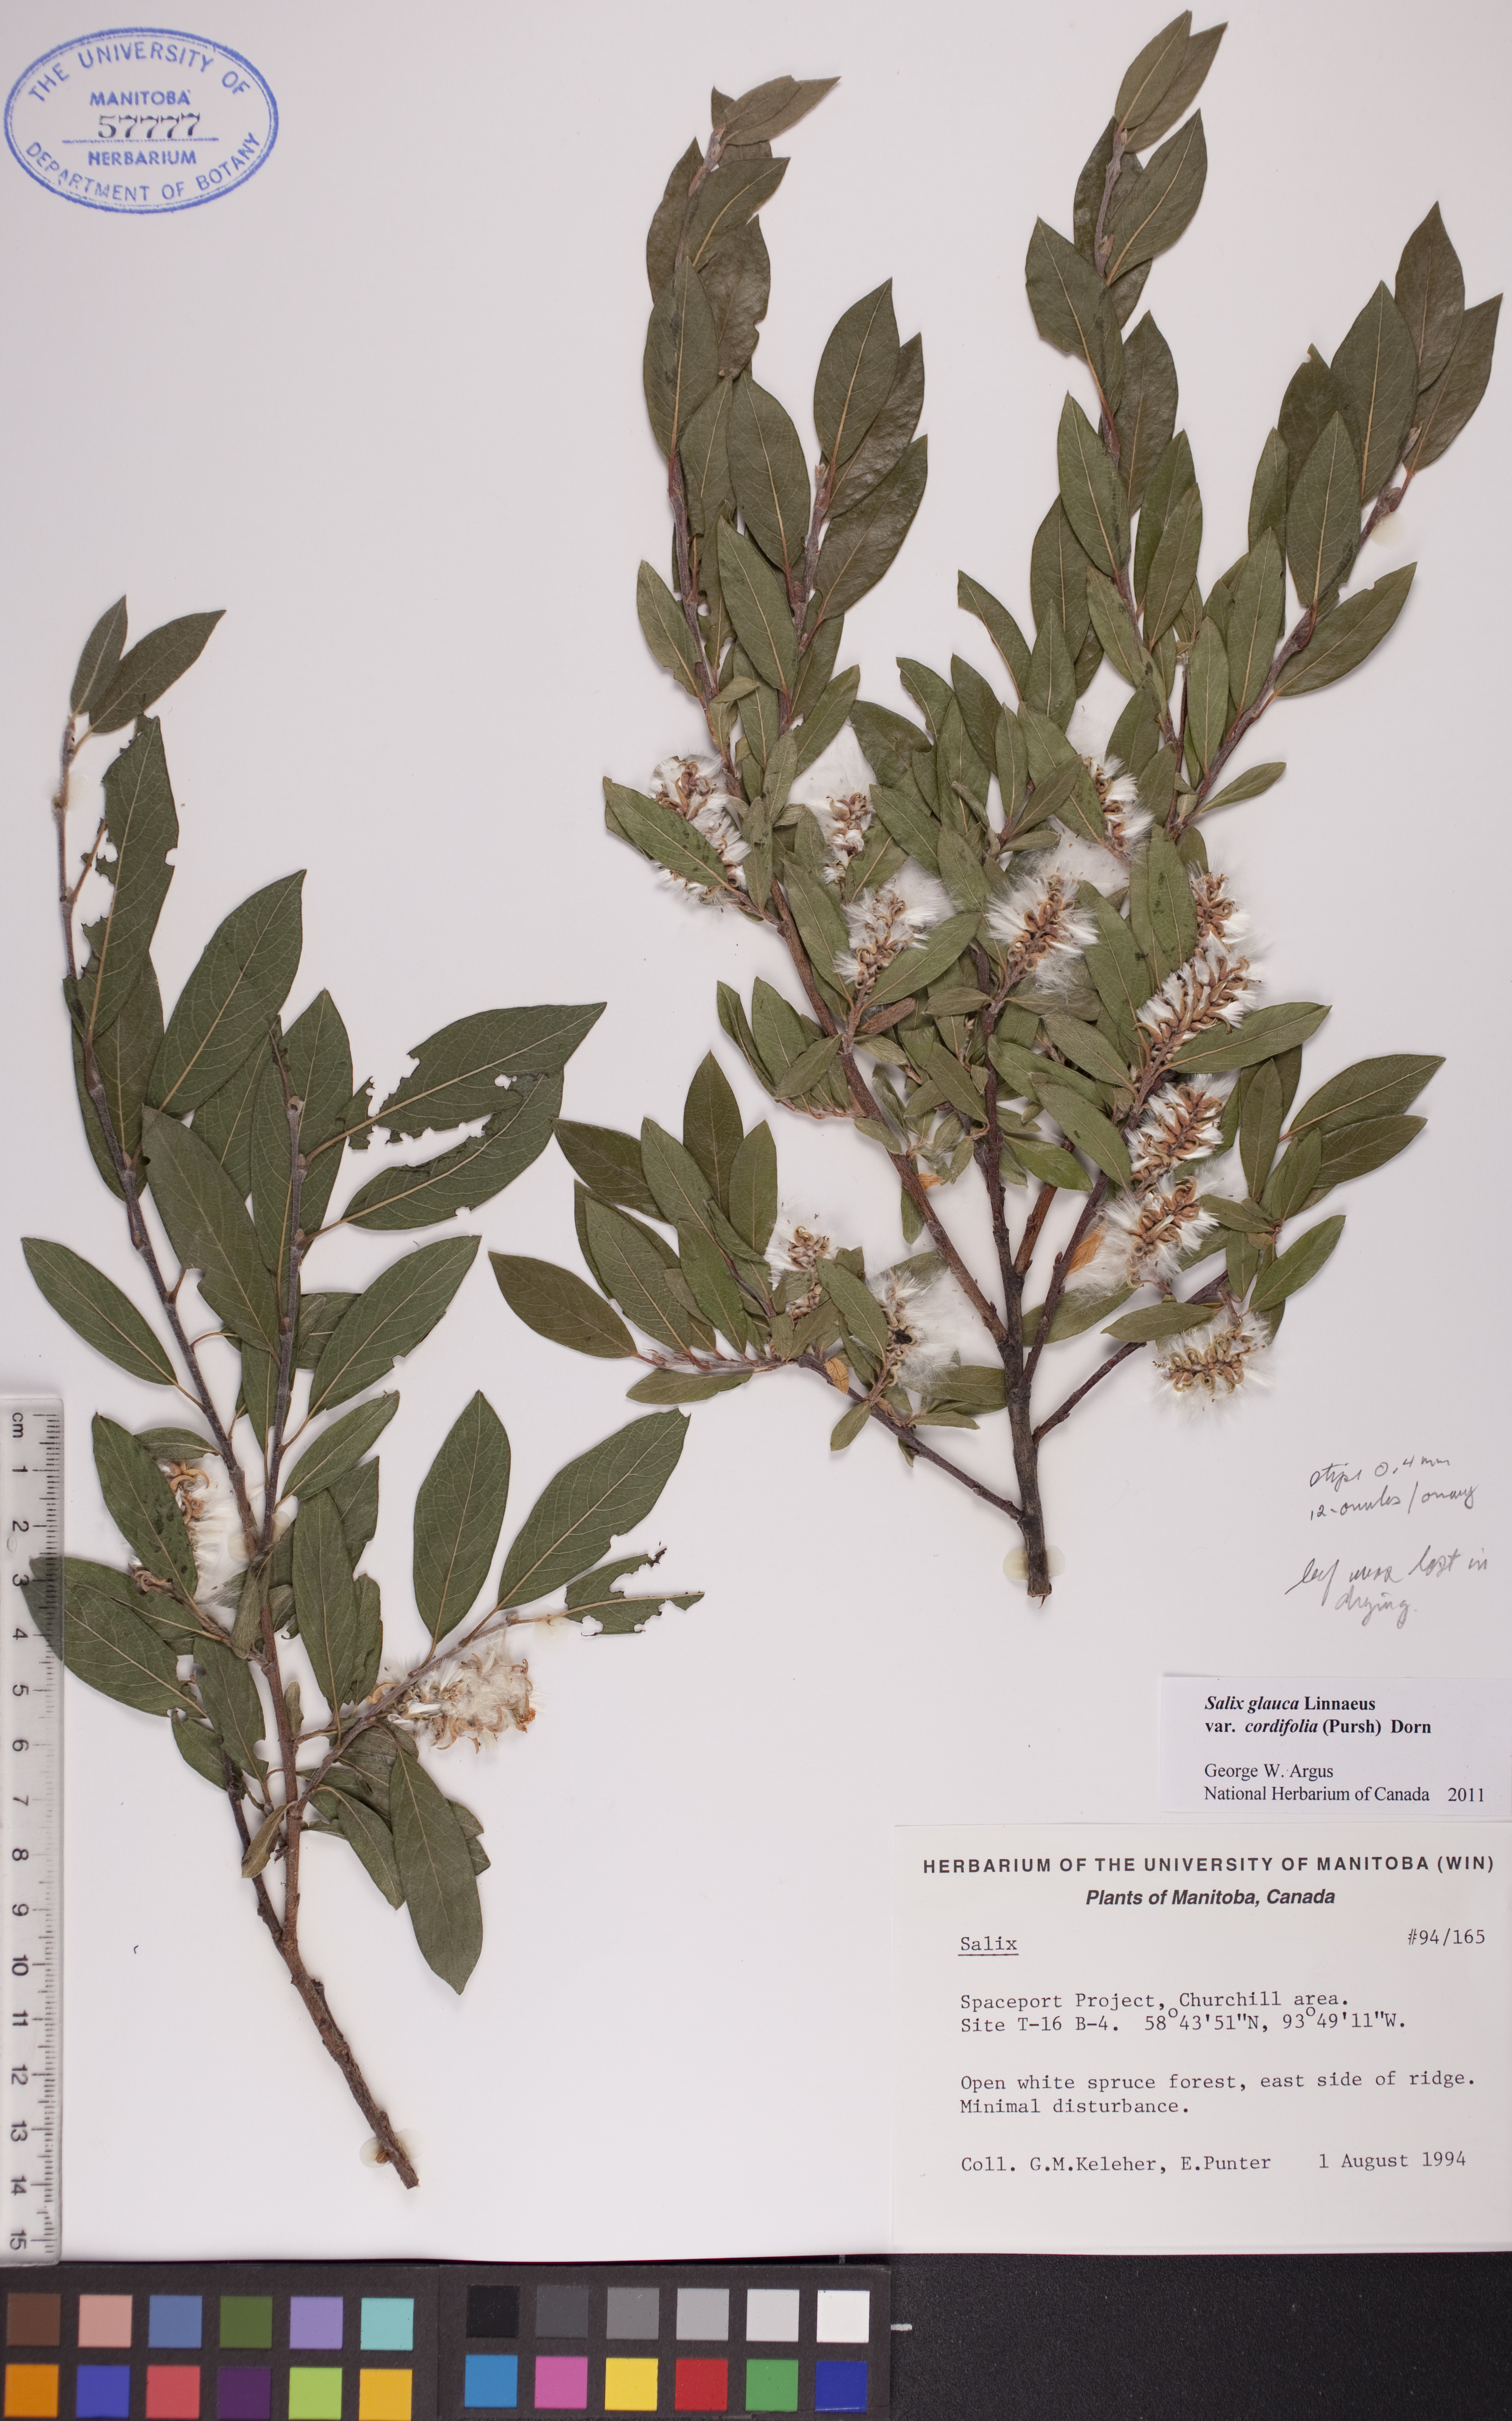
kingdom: Plantae
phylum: Tracheophyta
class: Magnoliopsida
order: Malpighiales
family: Salicaceae
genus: Salix
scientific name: Salix glauca
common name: Glaucous willow
